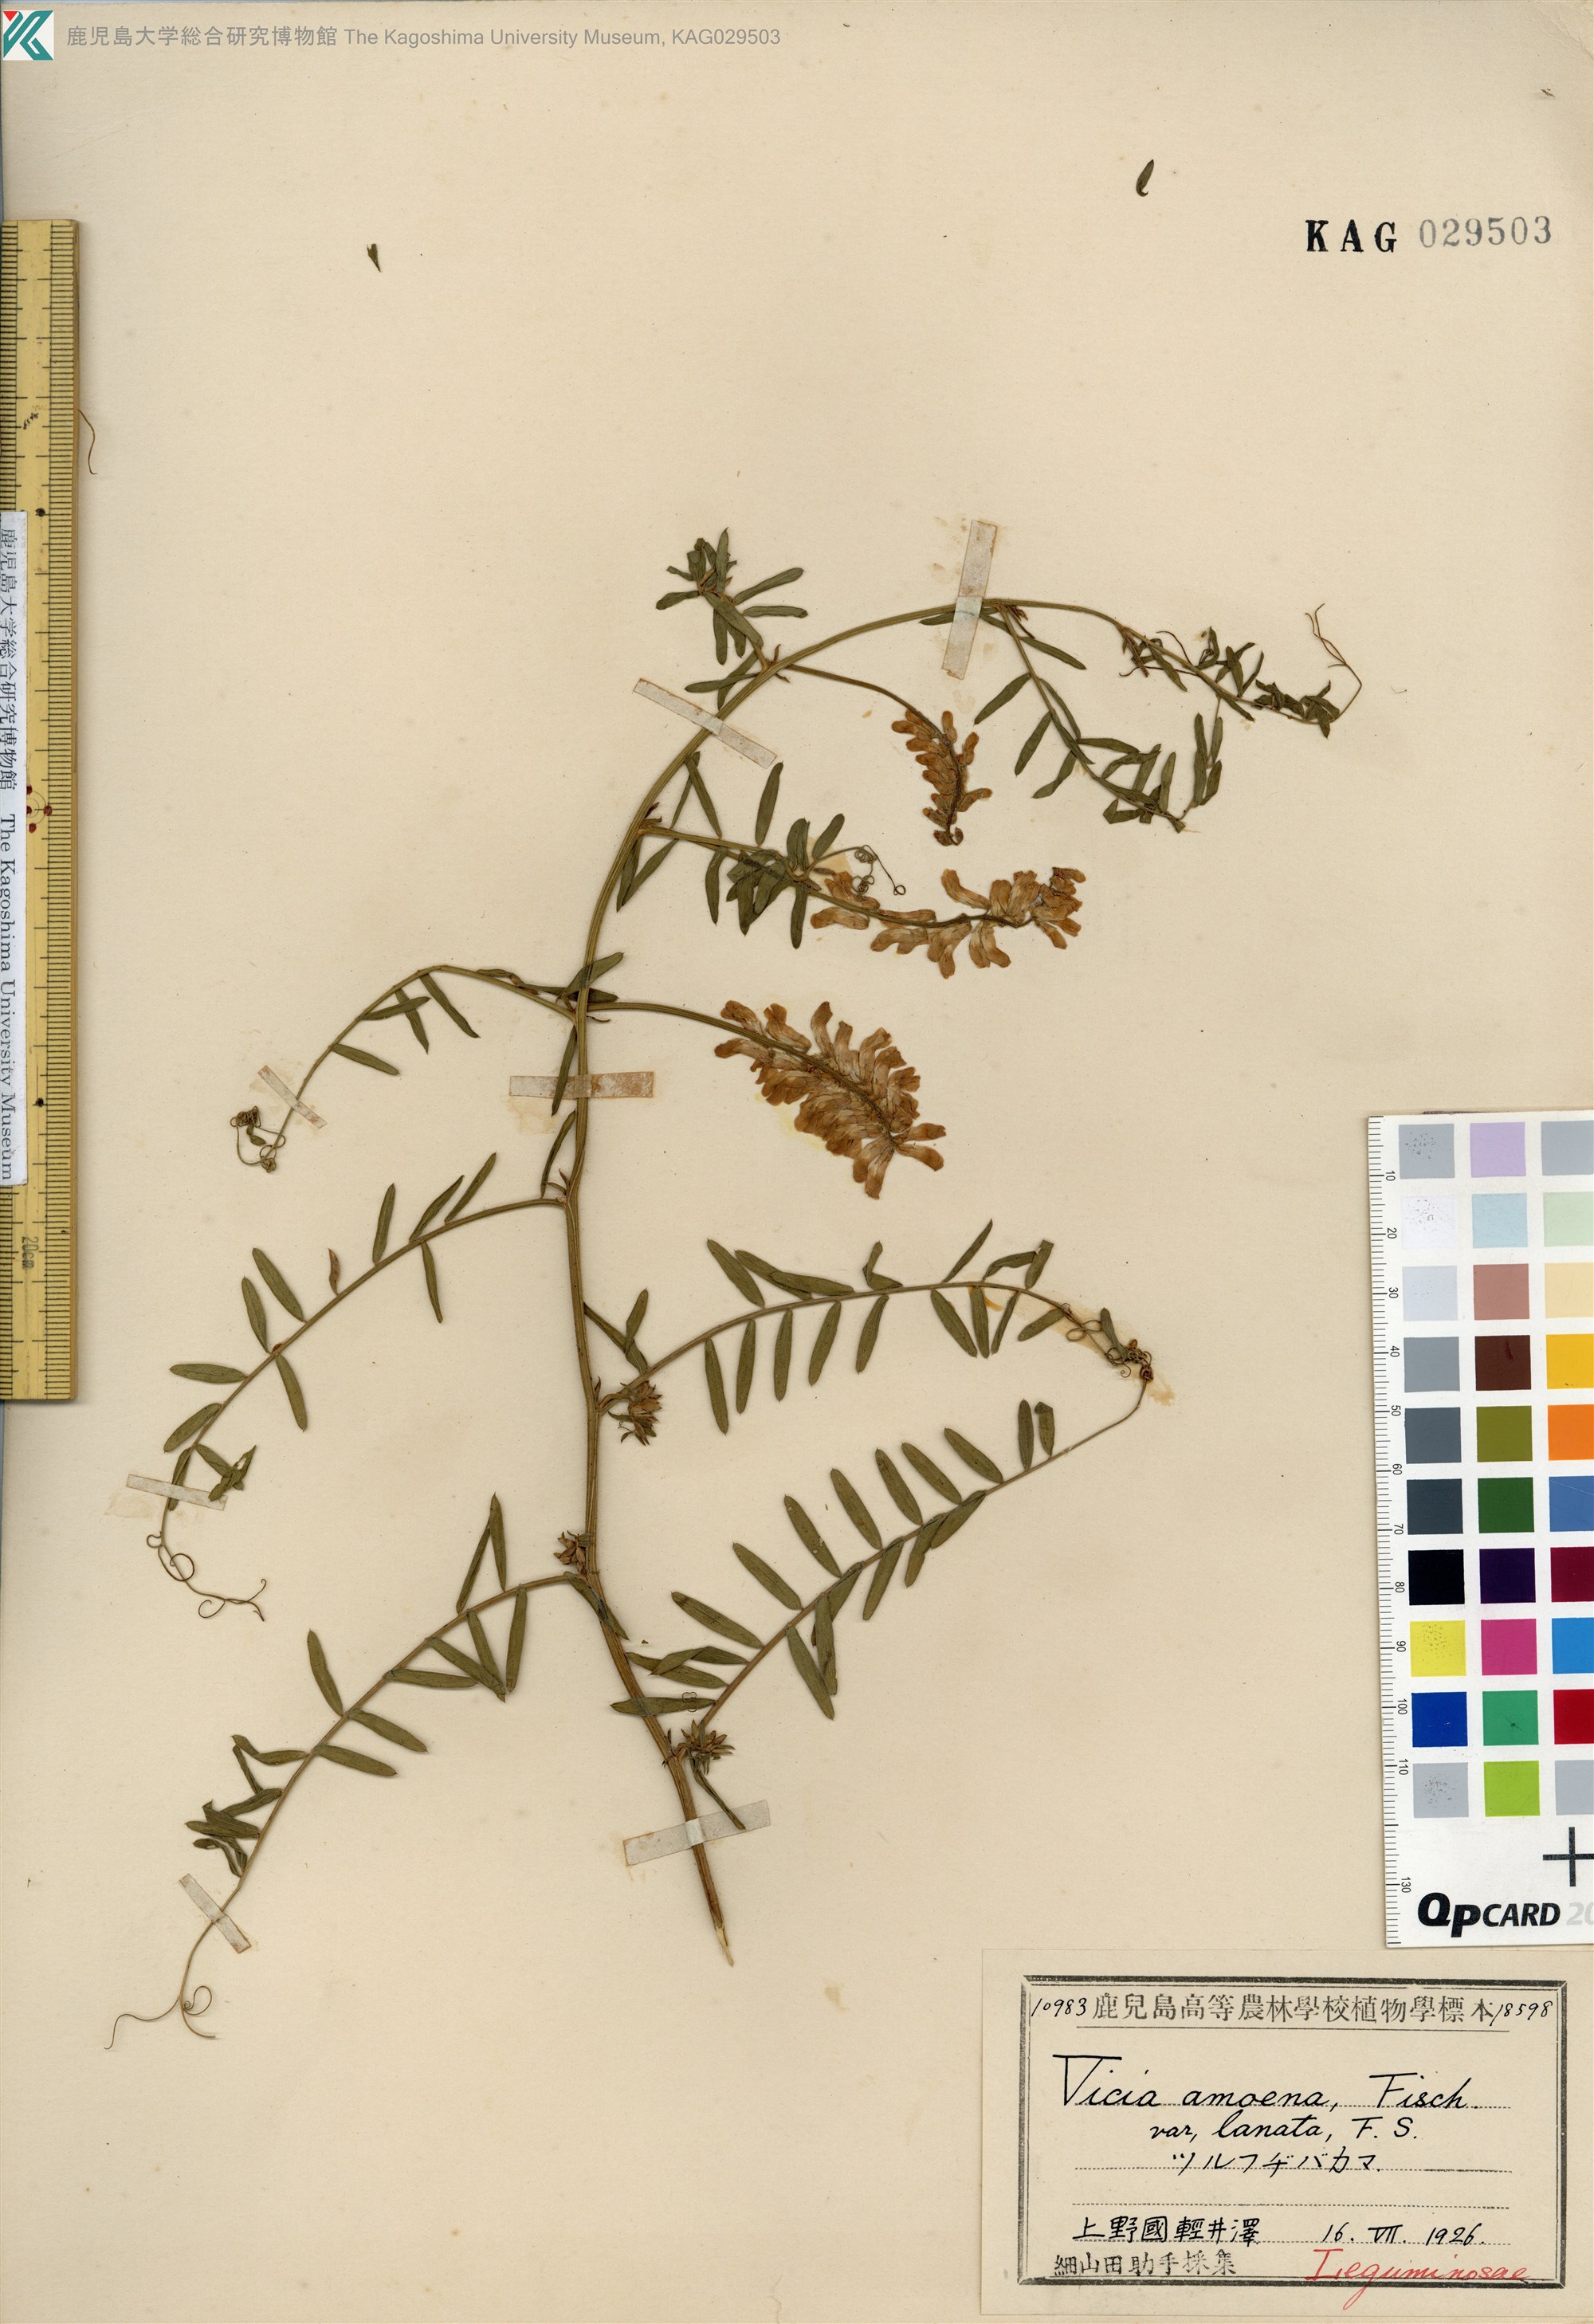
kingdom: Plantae
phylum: Tracheophyta
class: Magnoliopsida
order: Fabales
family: Fabaceae
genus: Vicia
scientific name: Vicia cracca
